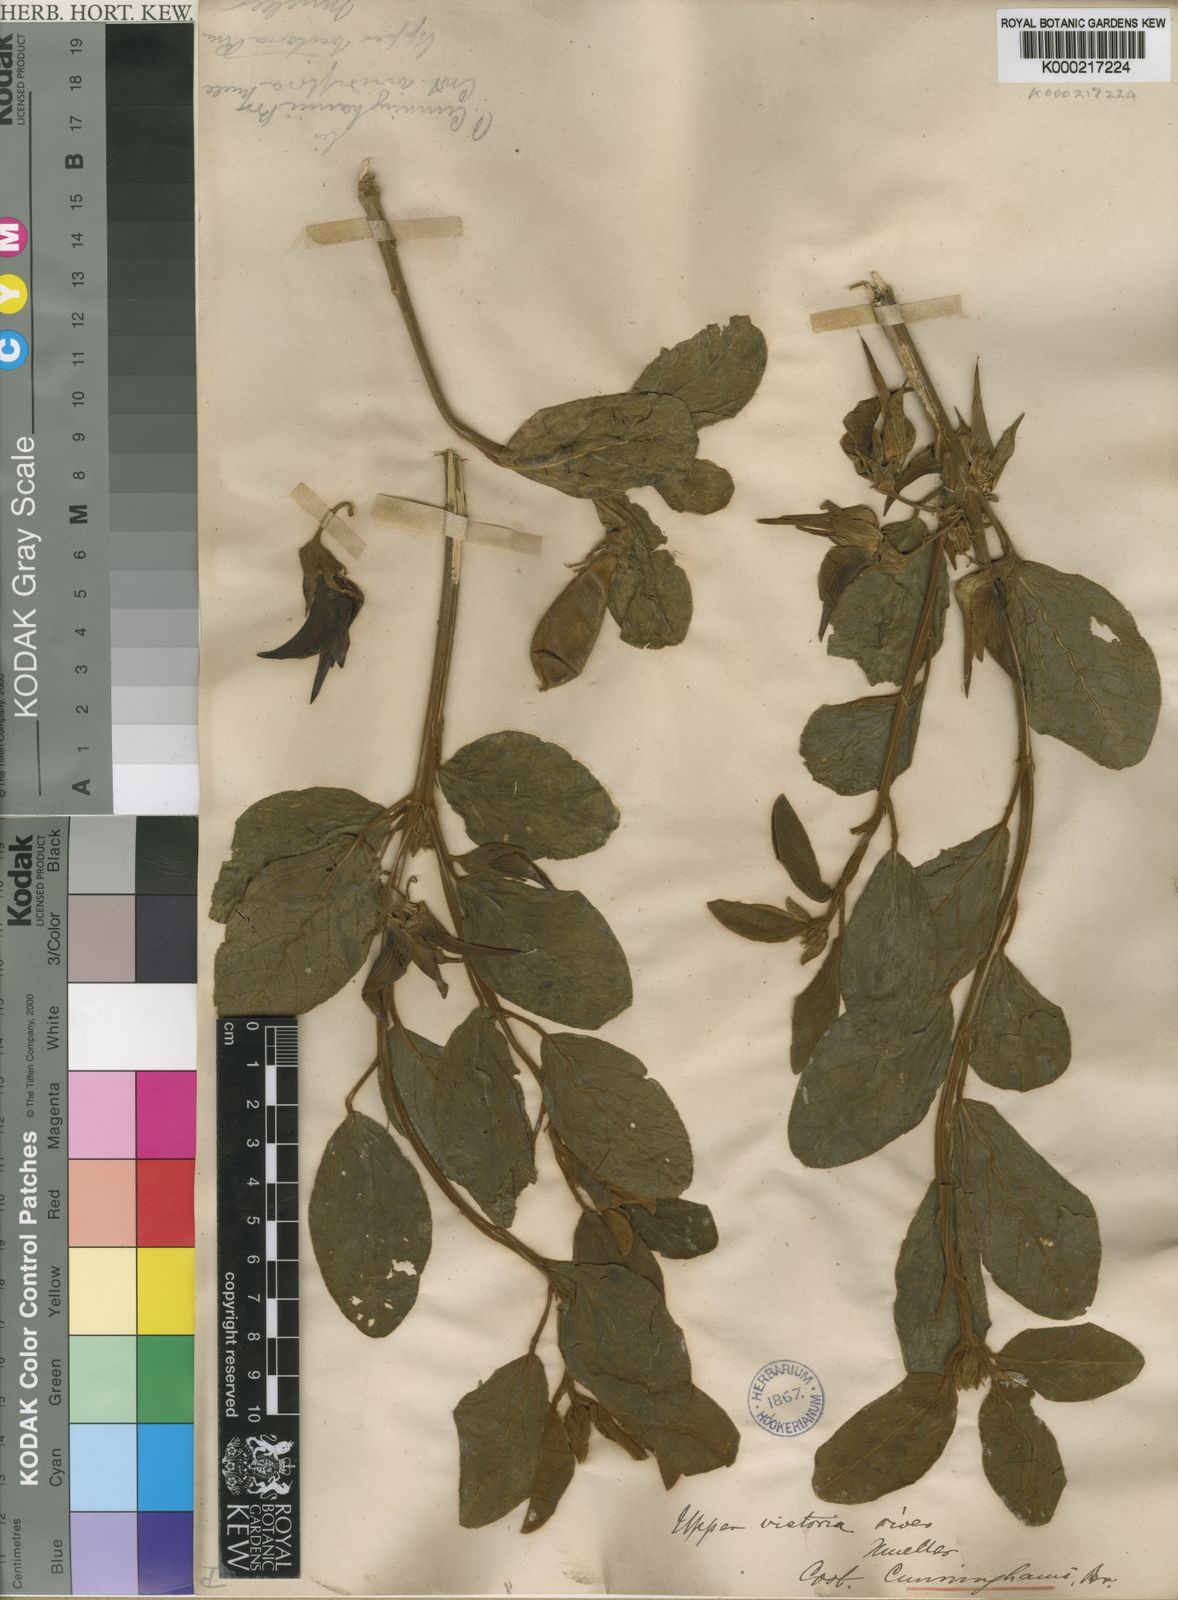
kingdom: Plantae
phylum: Tracheophyta
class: Magnoliopsida
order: Fabales
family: Fabaceae
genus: Crotalaria
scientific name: Crotalaria cunninghamii
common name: Birdflower rattlepod
